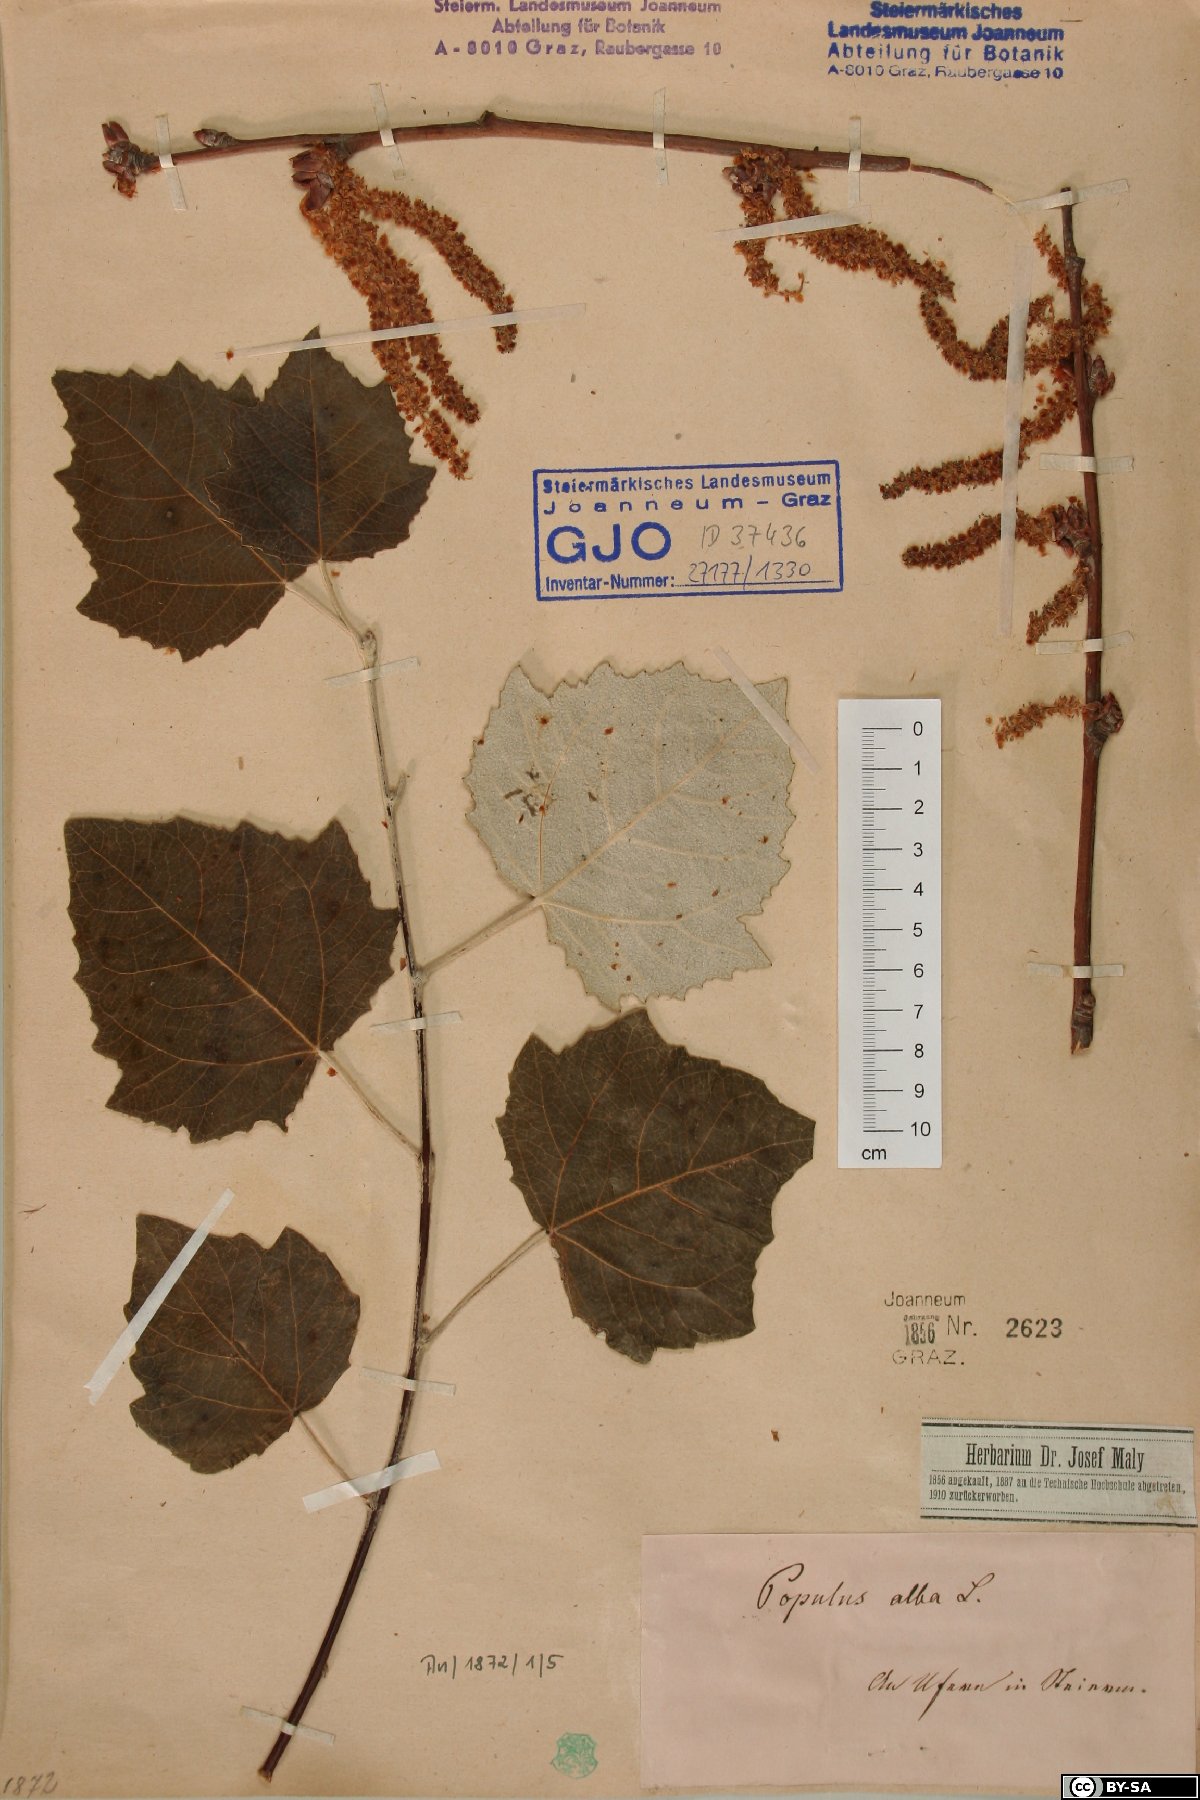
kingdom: Plantae
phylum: Tracheophyta
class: Magnoliopsida
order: Malpighiales
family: Salicaceae
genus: Populus
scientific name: Populus alba
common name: White poplar
